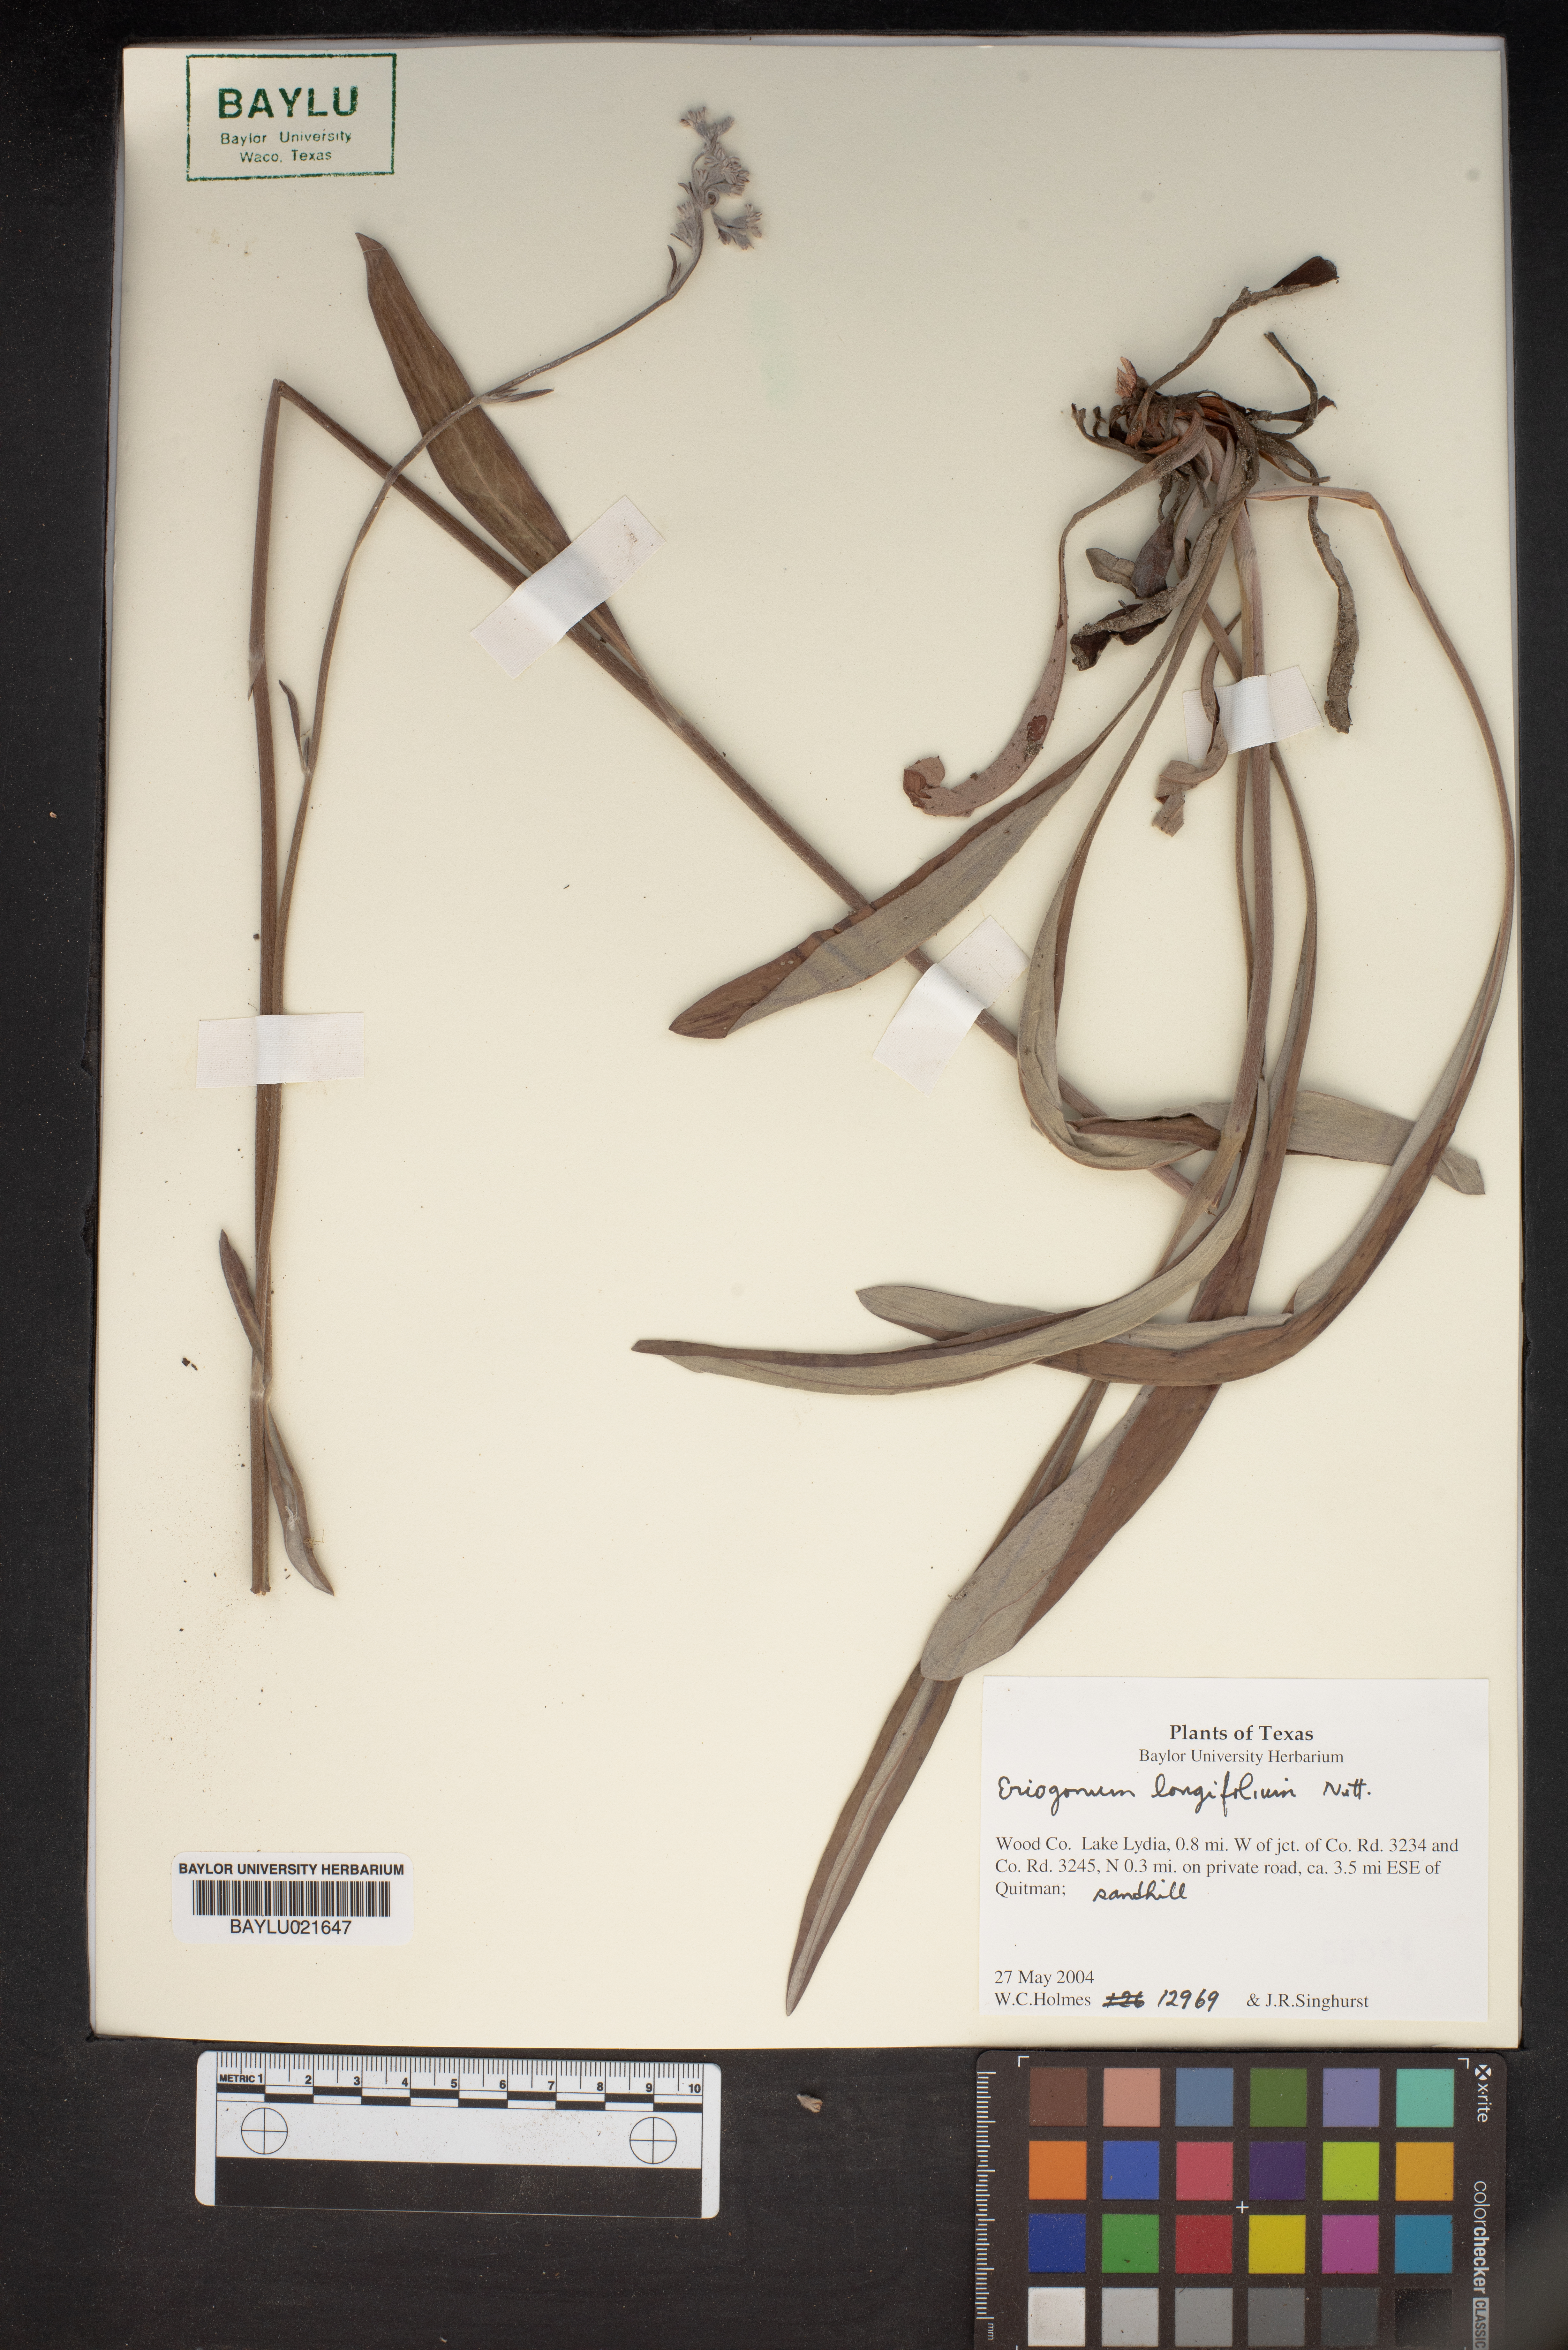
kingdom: Plantae
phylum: Tracheophyta
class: Magnoliopsida
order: Caryophyllales
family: Polygonaceae
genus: Eriogonum
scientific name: Eriogonum longifolium
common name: Longleaf wild buckwheat
